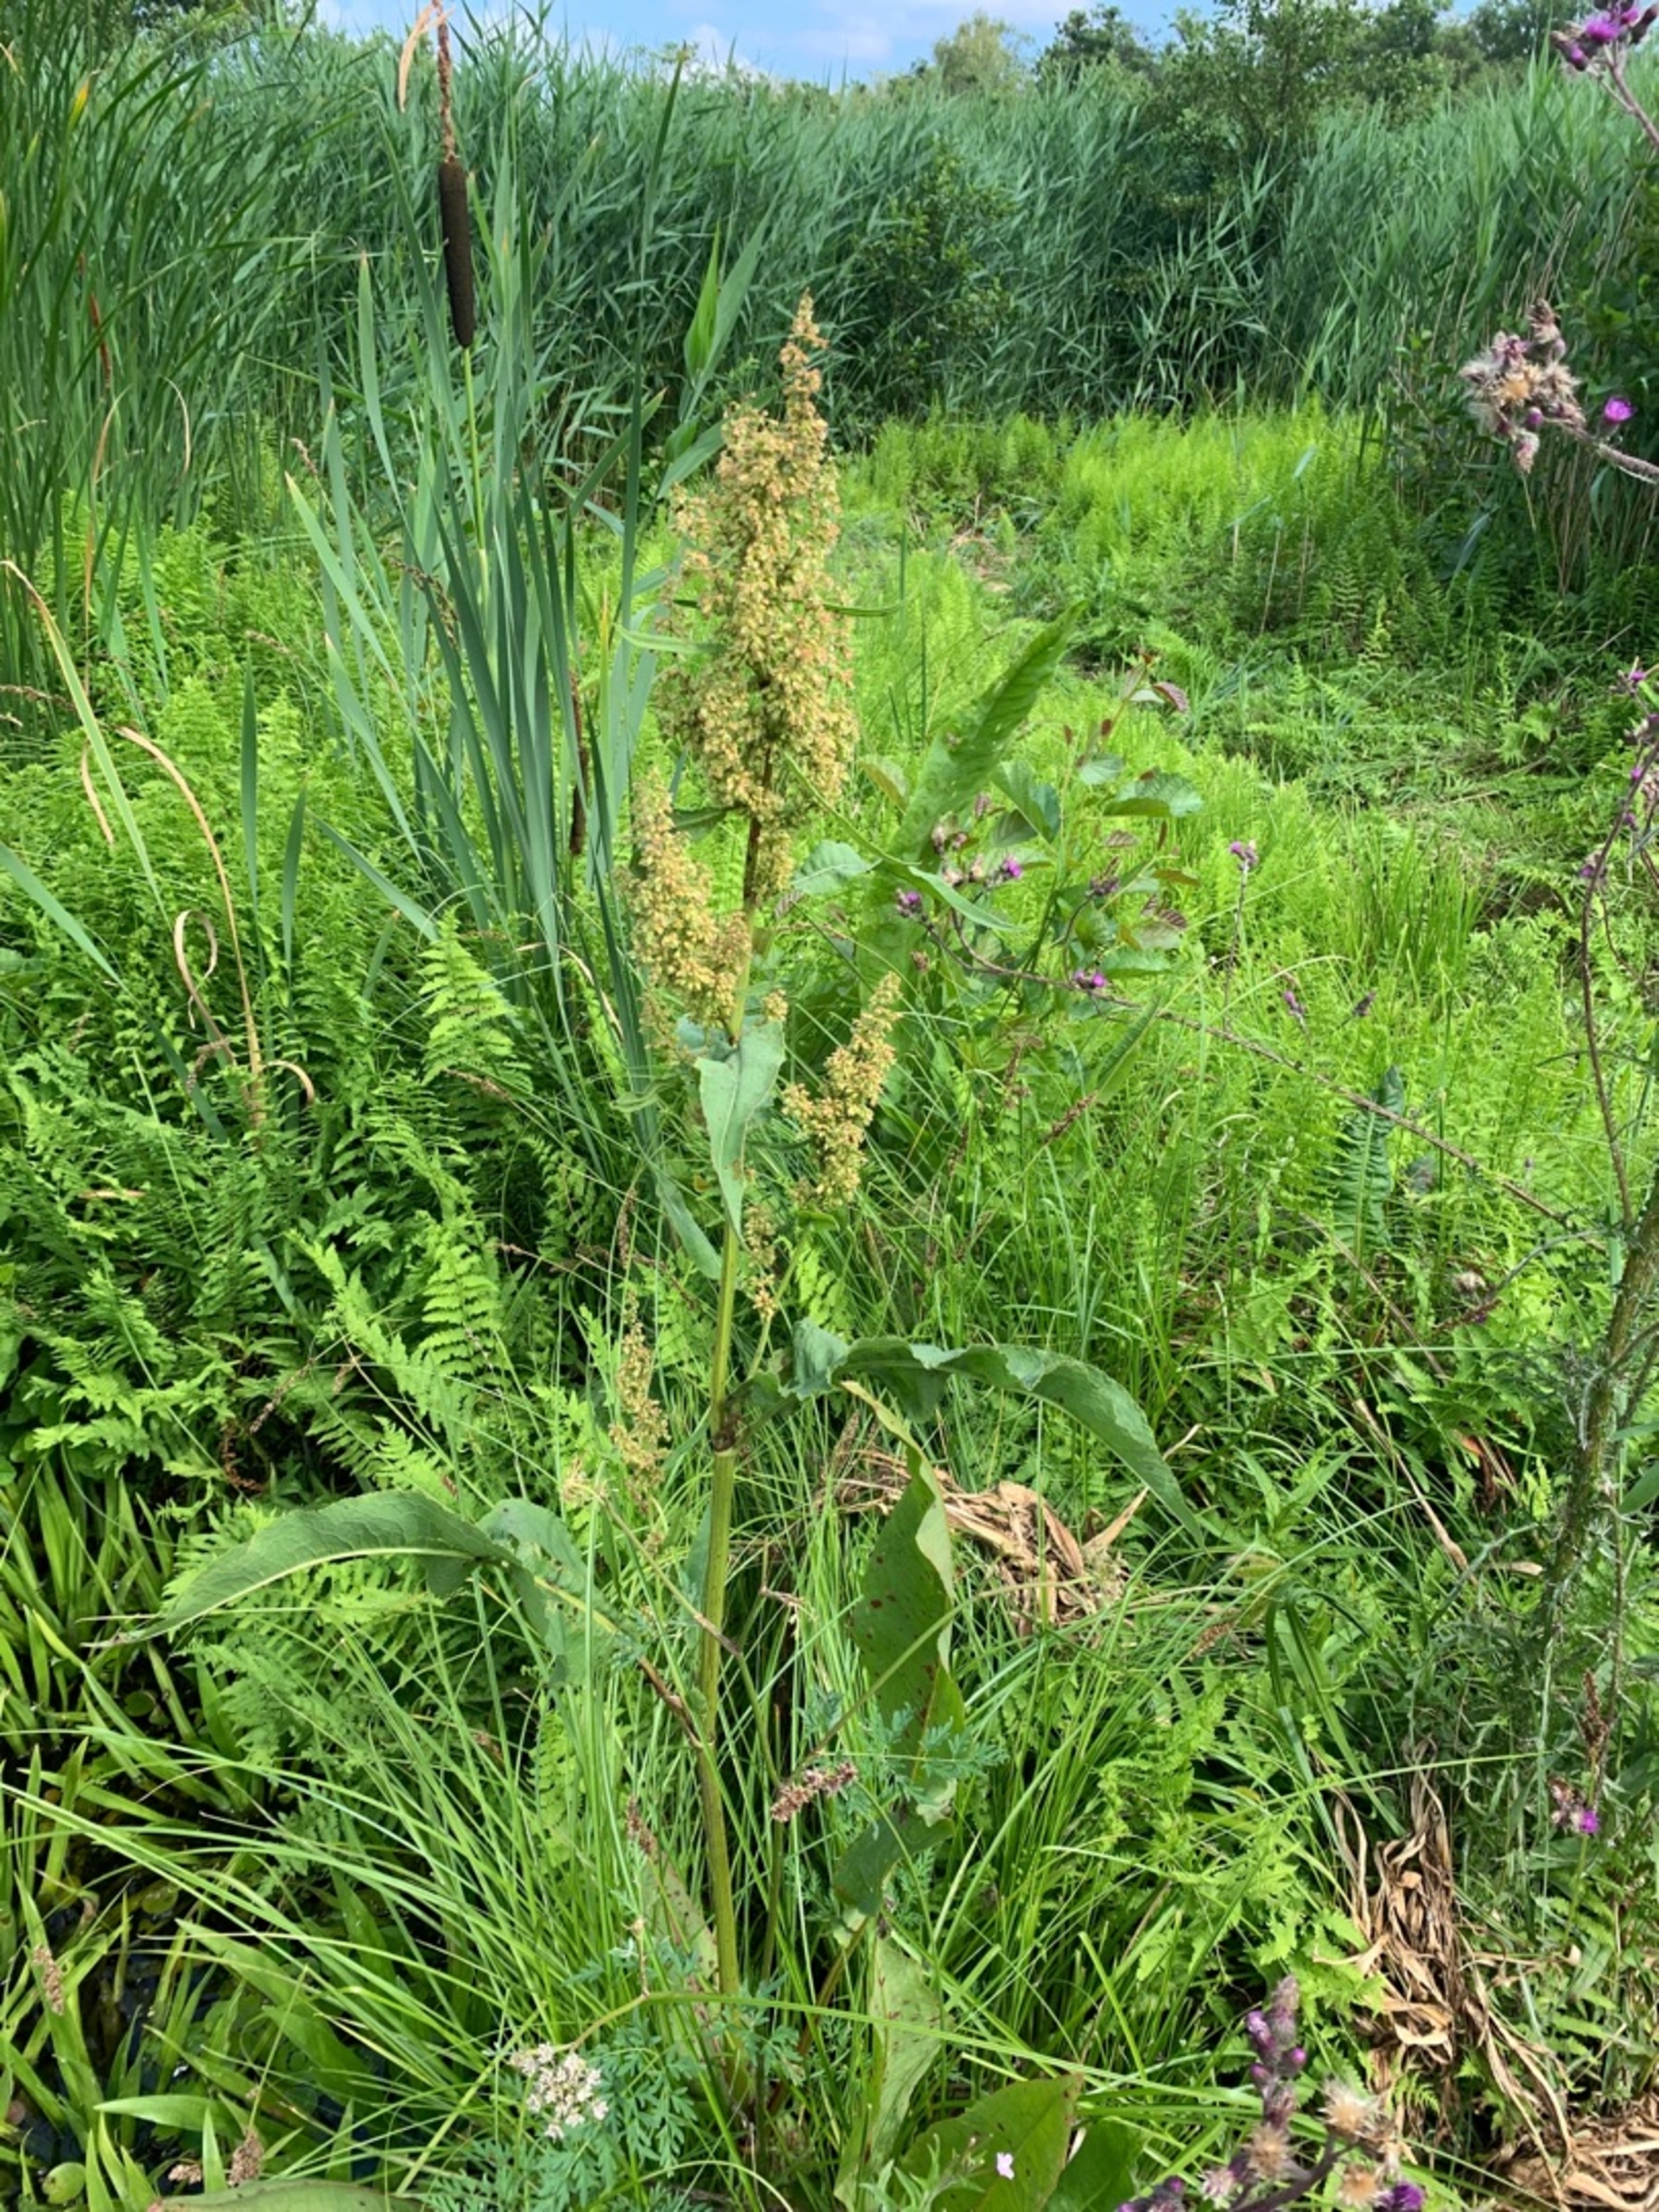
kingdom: Plantae
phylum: Tracheophyta
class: Magnoliopsida
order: Caryophyllales
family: Polygonaceae
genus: Rumex
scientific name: Rumex hydrolapathum
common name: Vand-skræppe
